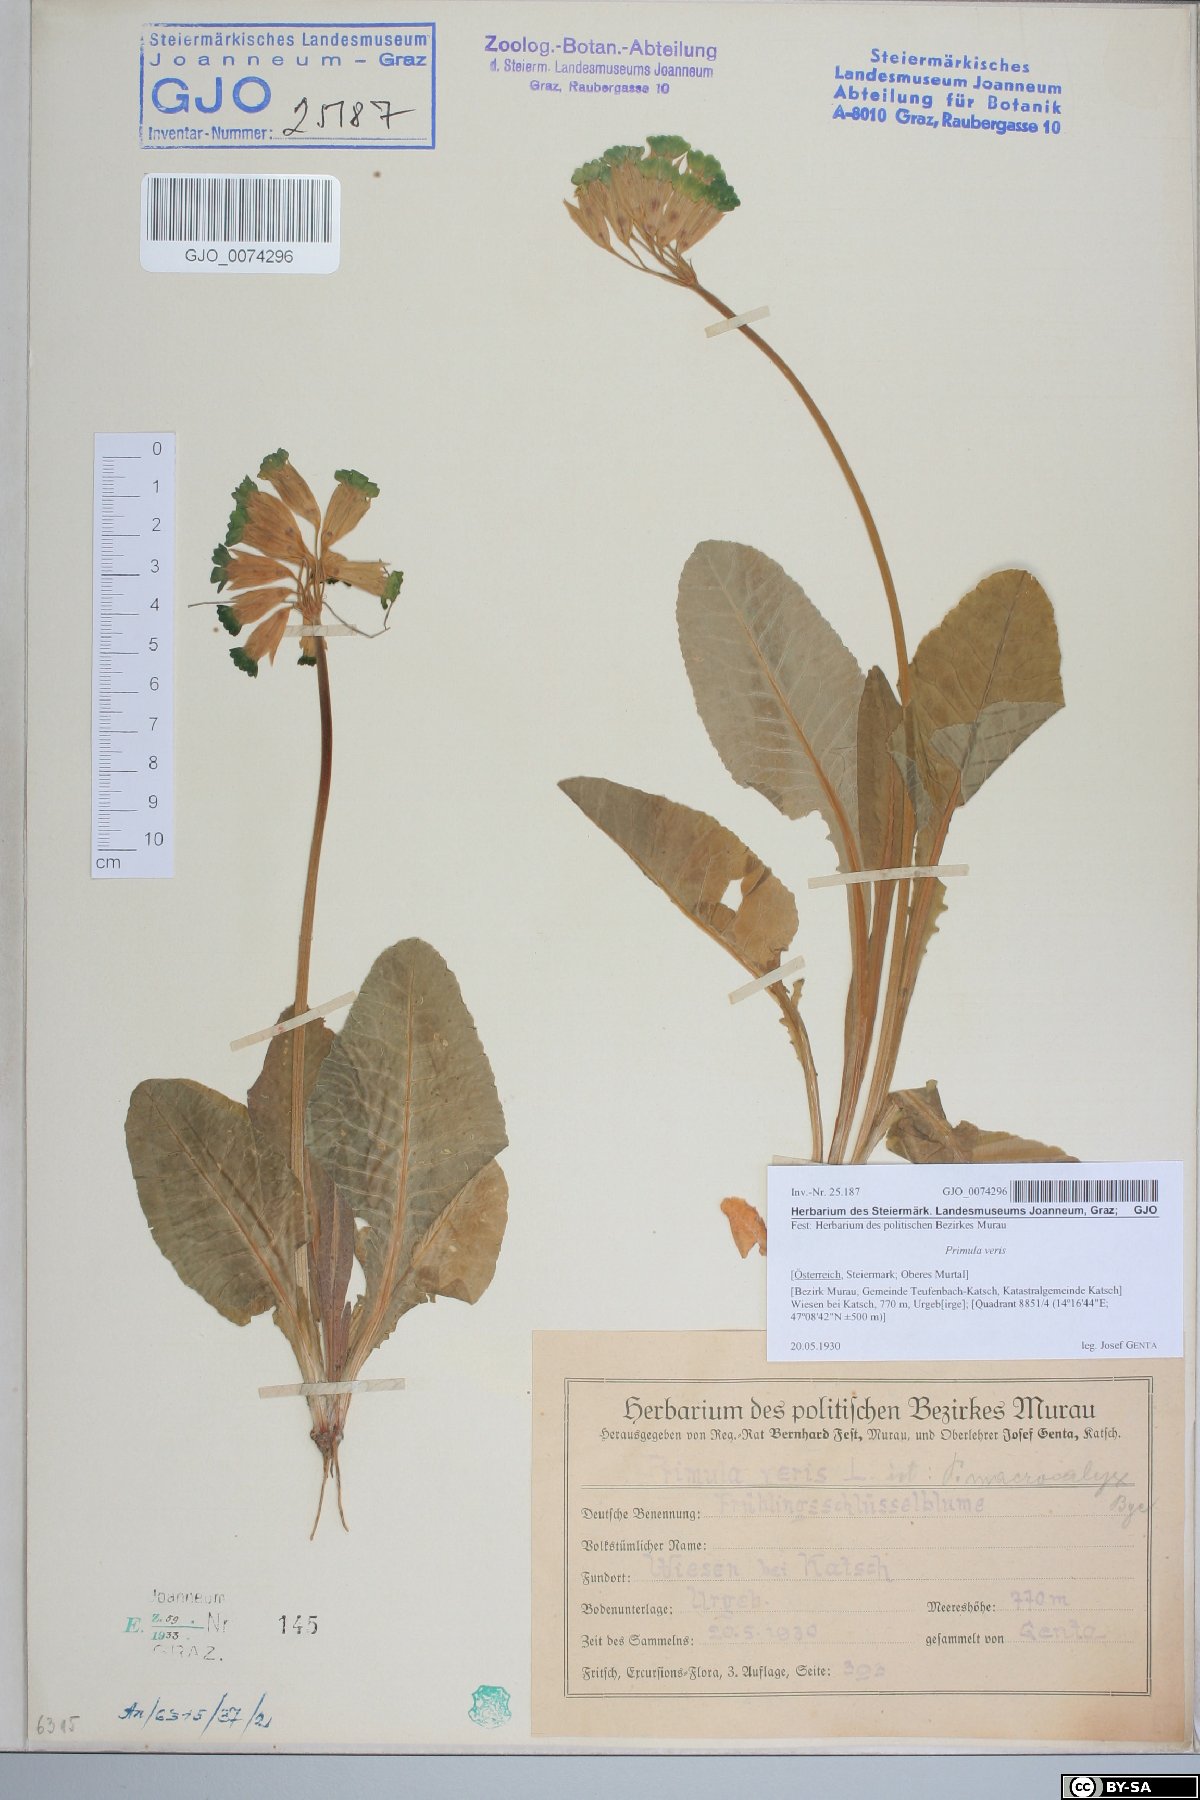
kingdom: Plantae
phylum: Tracheophyta
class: Magnoliopsida
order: Ericales
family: Primulaceae
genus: Primula
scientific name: Primula veris
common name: Cowslip
